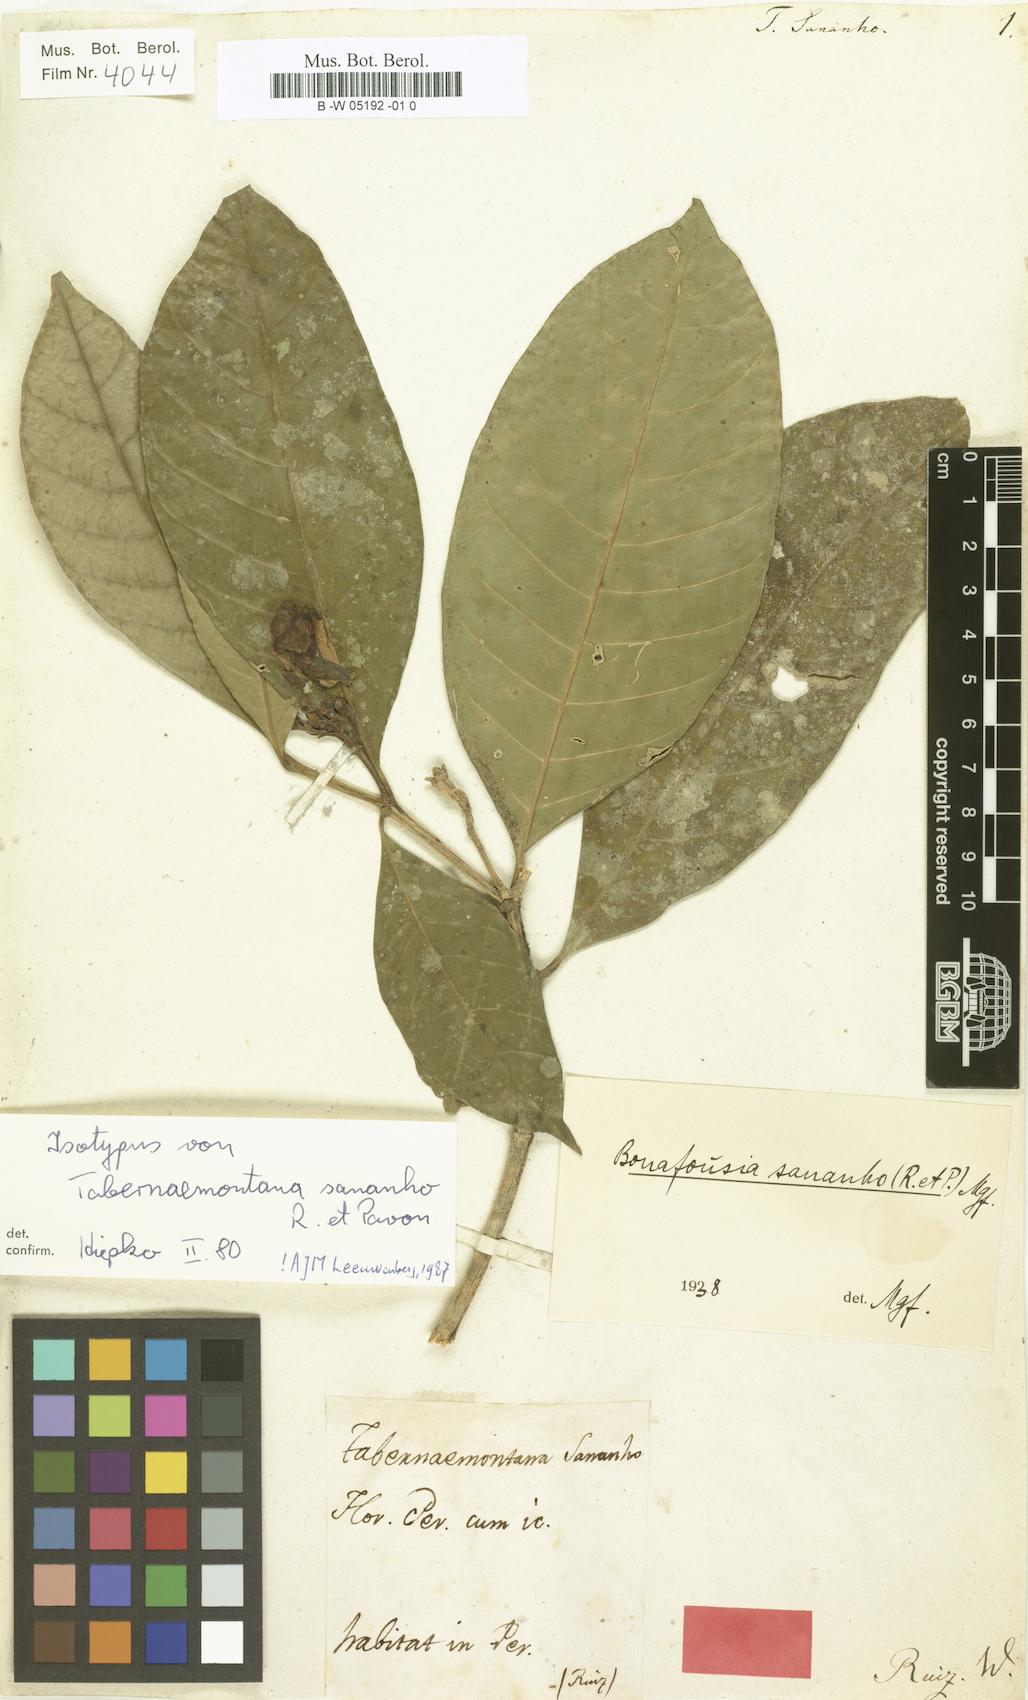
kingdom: Plantae
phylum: Tracheophyta
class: Magnoliopsida
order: Gentianales
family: Apocynaceae
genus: Tabernaemontana
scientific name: Tabernaemontana sananho
